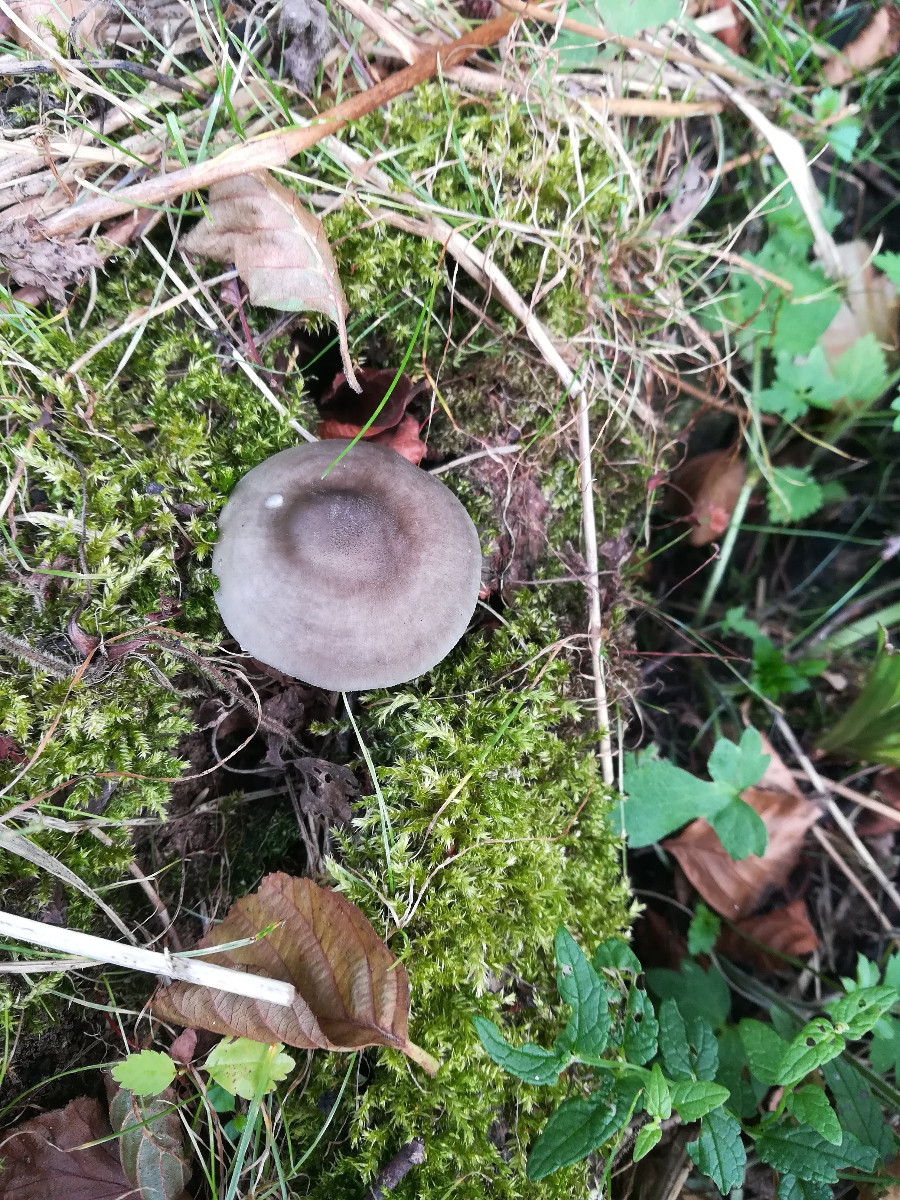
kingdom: Fungi
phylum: Basidiomycota
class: Agaricomycetes
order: Agaricales
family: Pluteaceae
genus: Pluteus
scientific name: Pluteus salicinus
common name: stiv skærmhat
